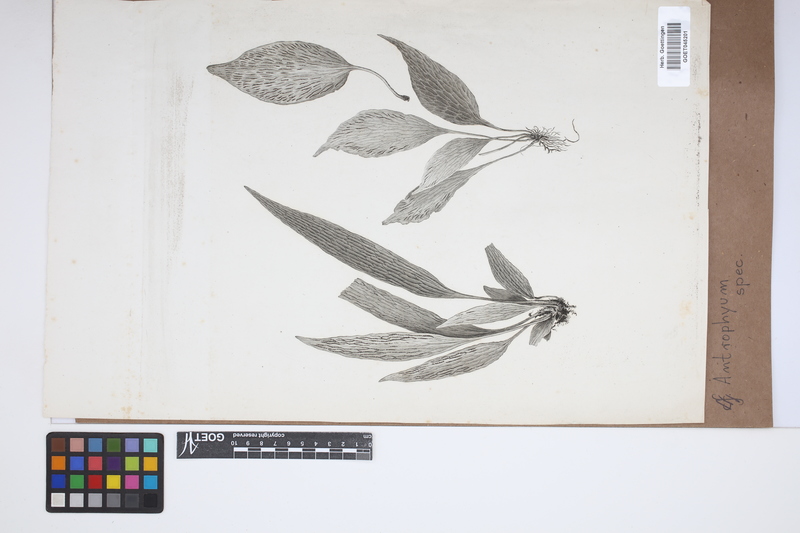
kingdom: Plantae
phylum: Tracheophyta
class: Polypodiopsida
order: Polypodiales
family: Pteridaceae
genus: Antrophyum
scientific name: Antrophyum
